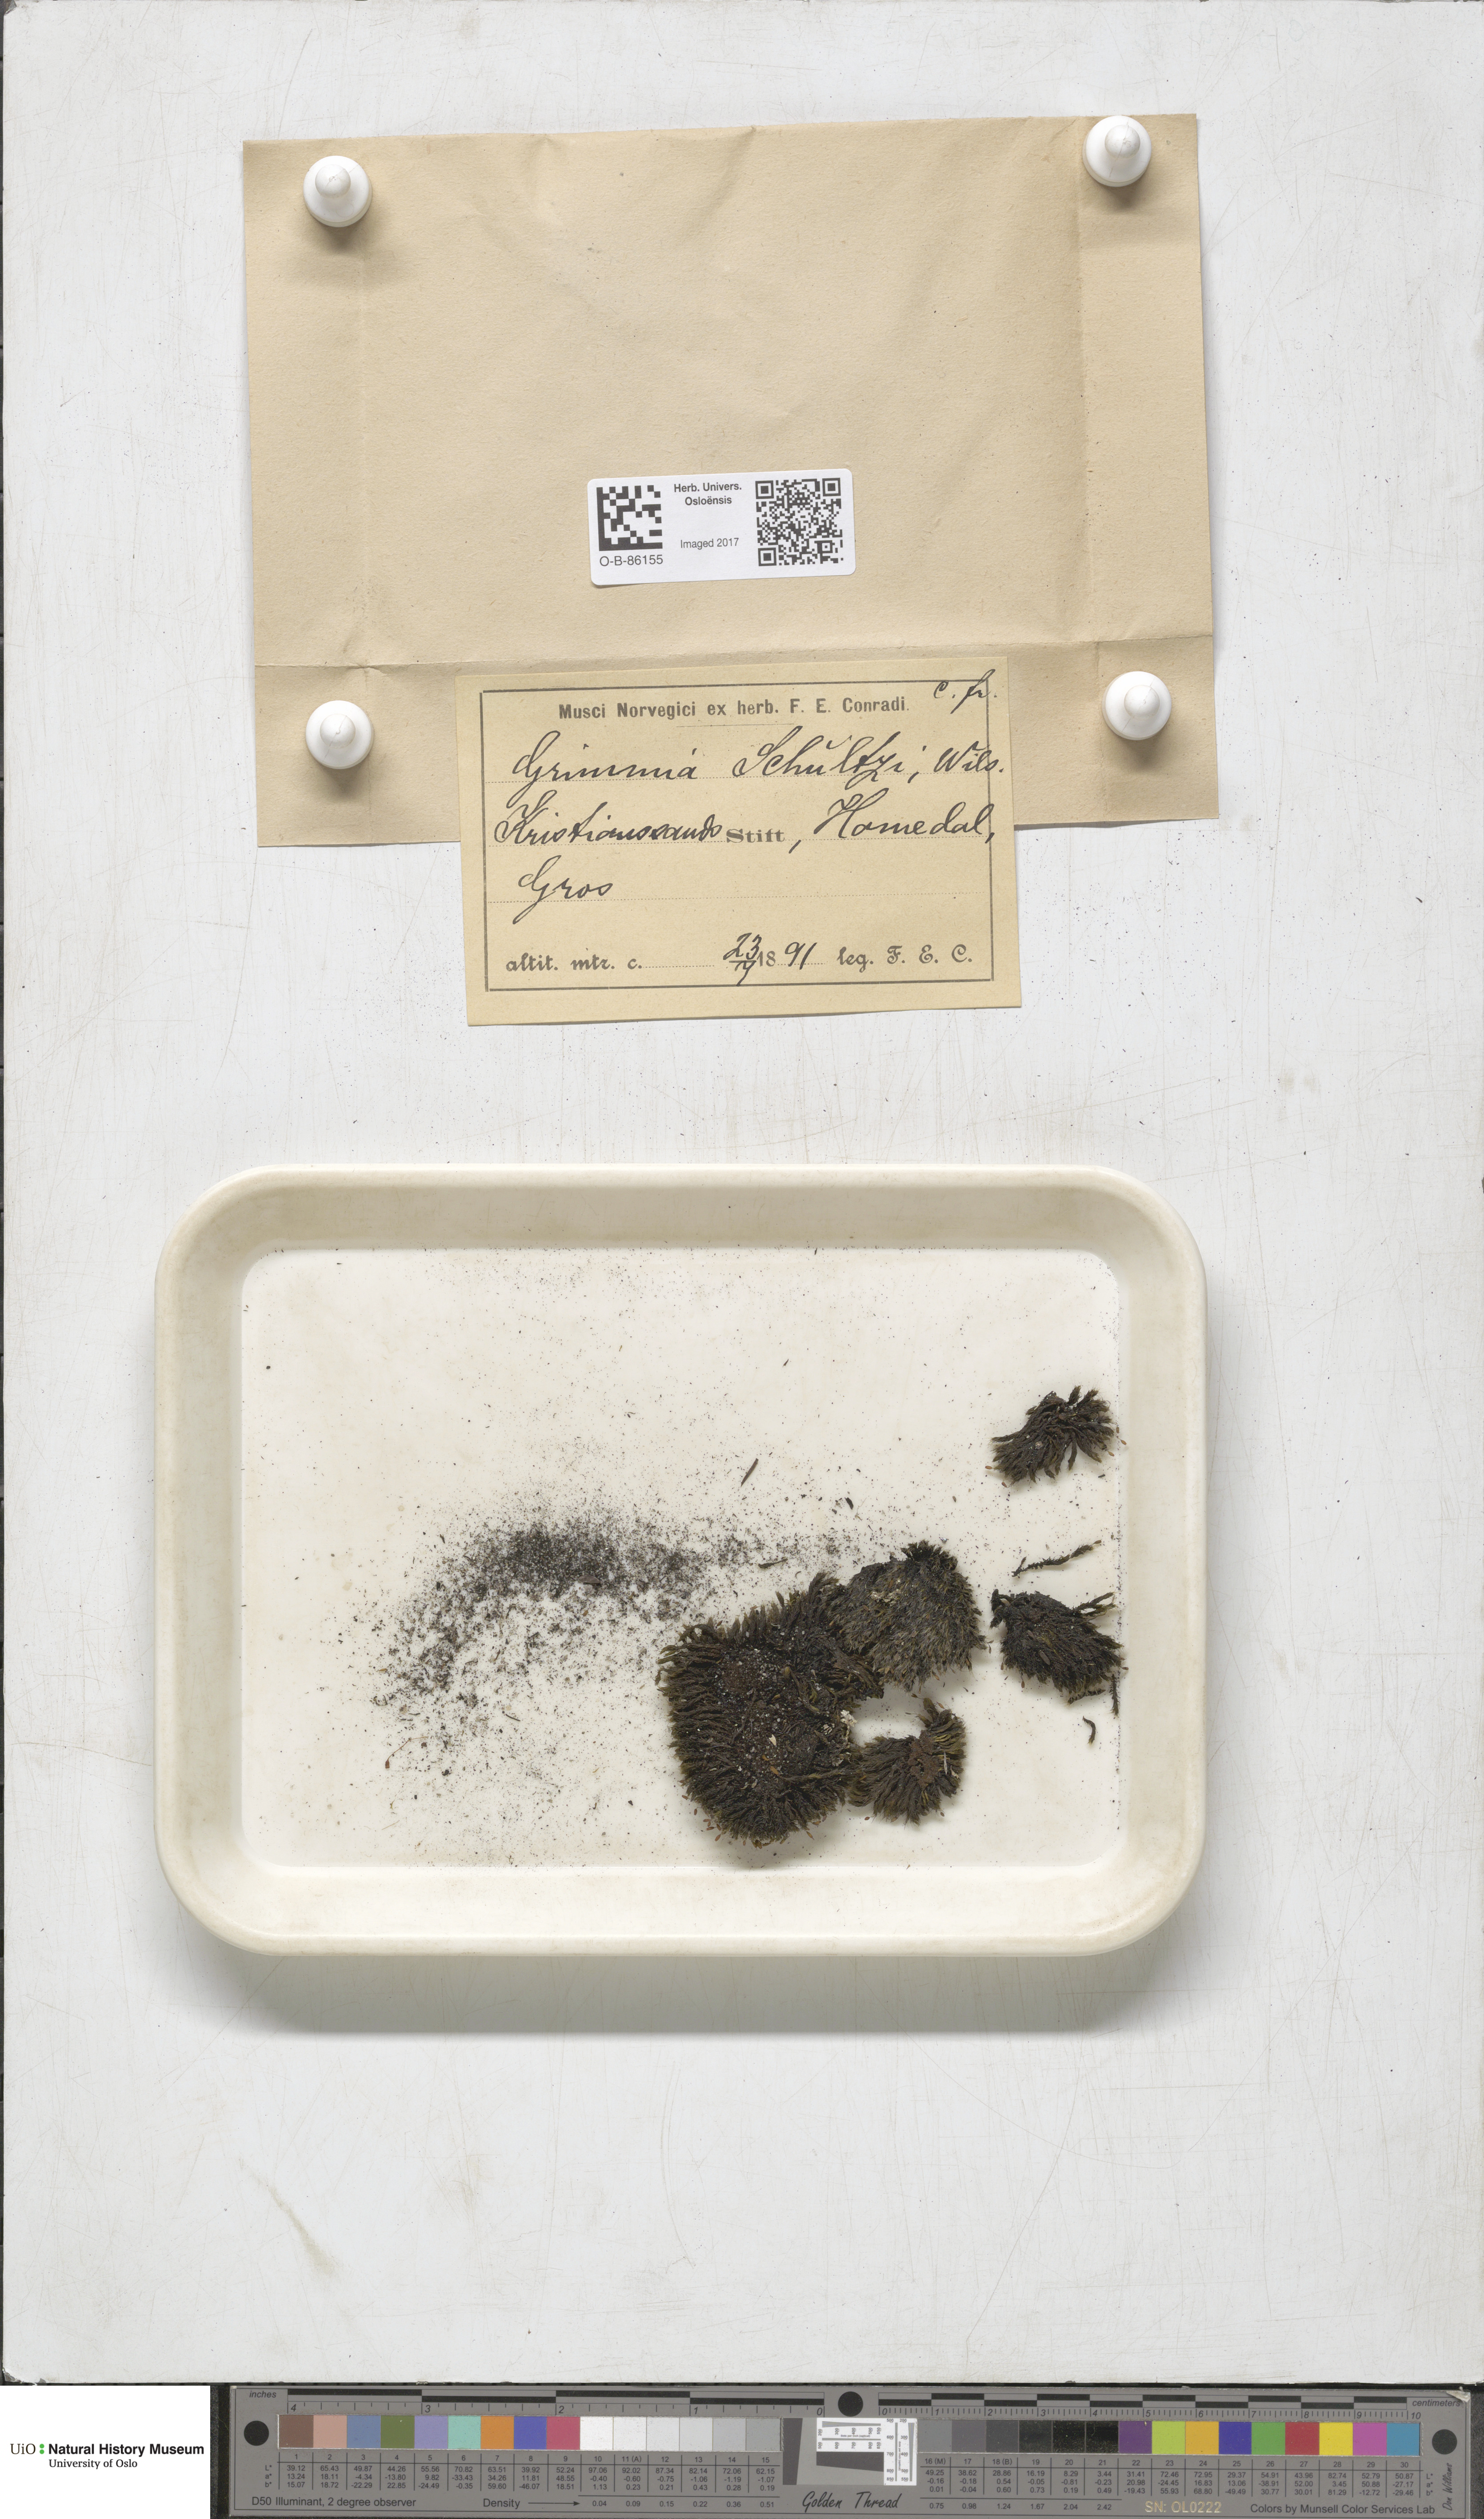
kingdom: Plantae
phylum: Bryophyta
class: Bryopsida
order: Grimmiales
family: Grimmiaceae
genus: Grimmia
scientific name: Grimmia decipiens
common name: Great grimmia
